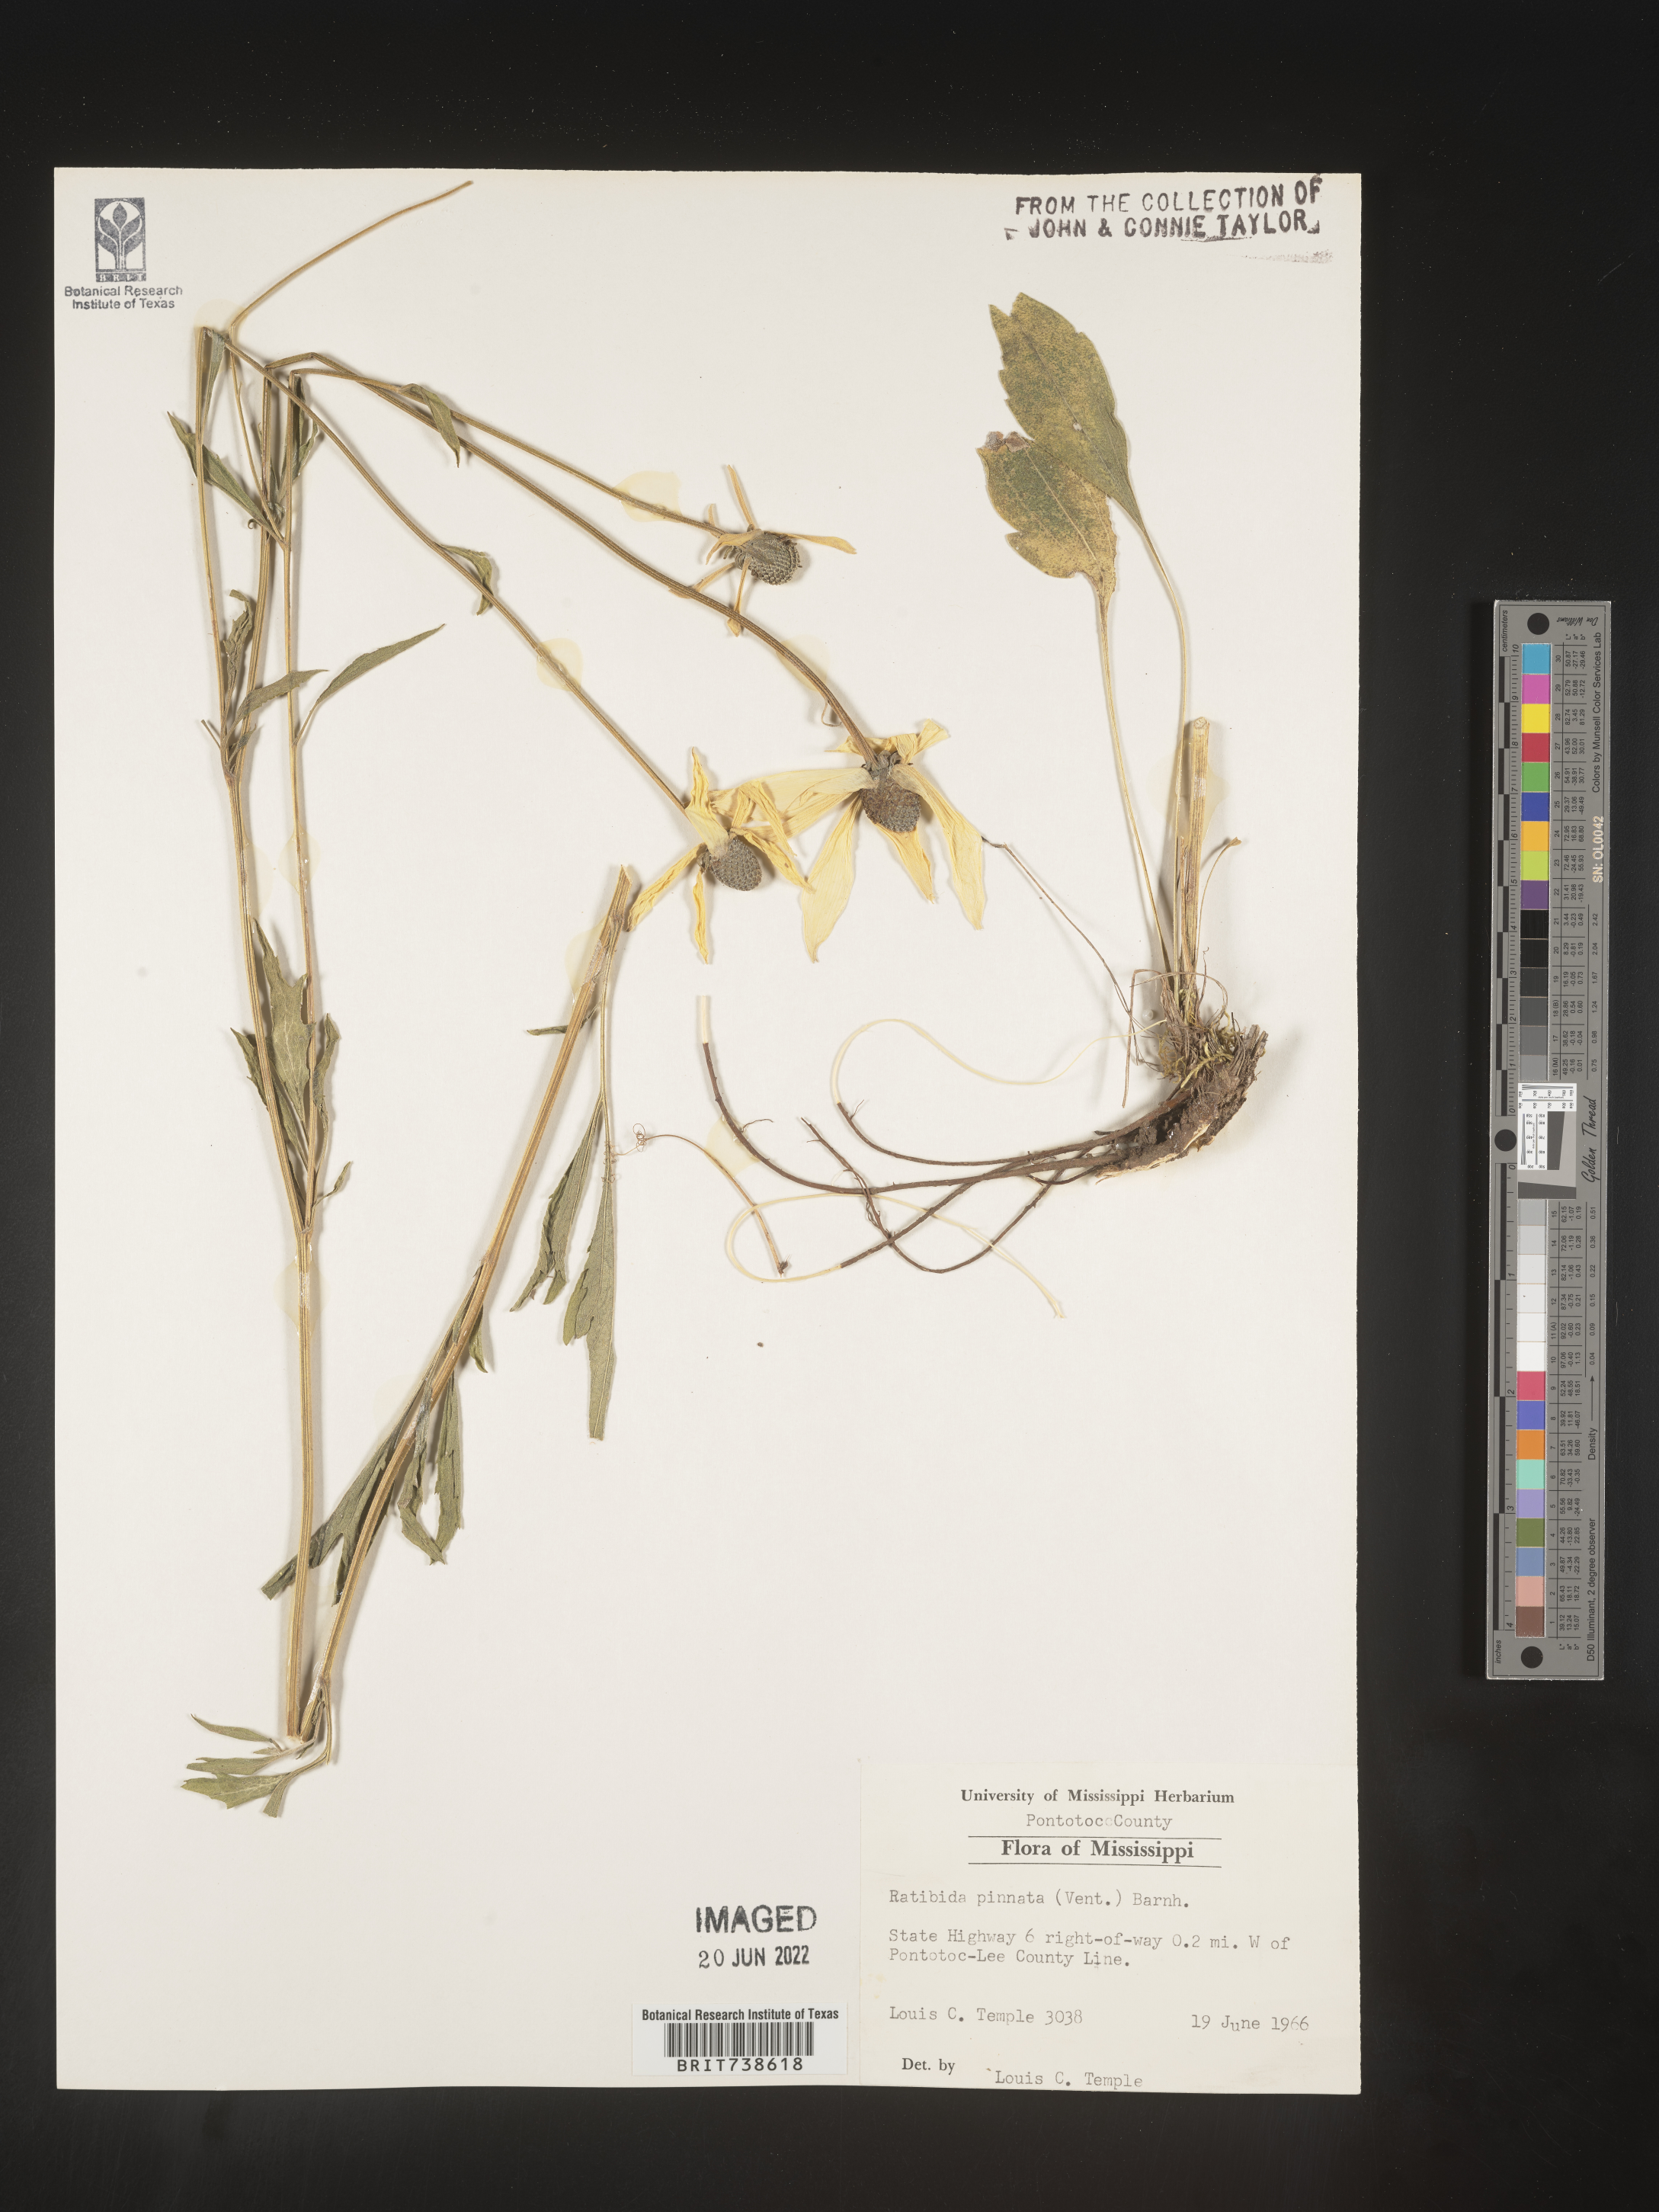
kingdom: Plantae
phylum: Tracheophyta
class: Magnoliopsida
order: Asterales
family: Asteraceae
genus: Ratibida
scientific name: Ratibida pinnata
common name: Drooping prairie-coneflower
